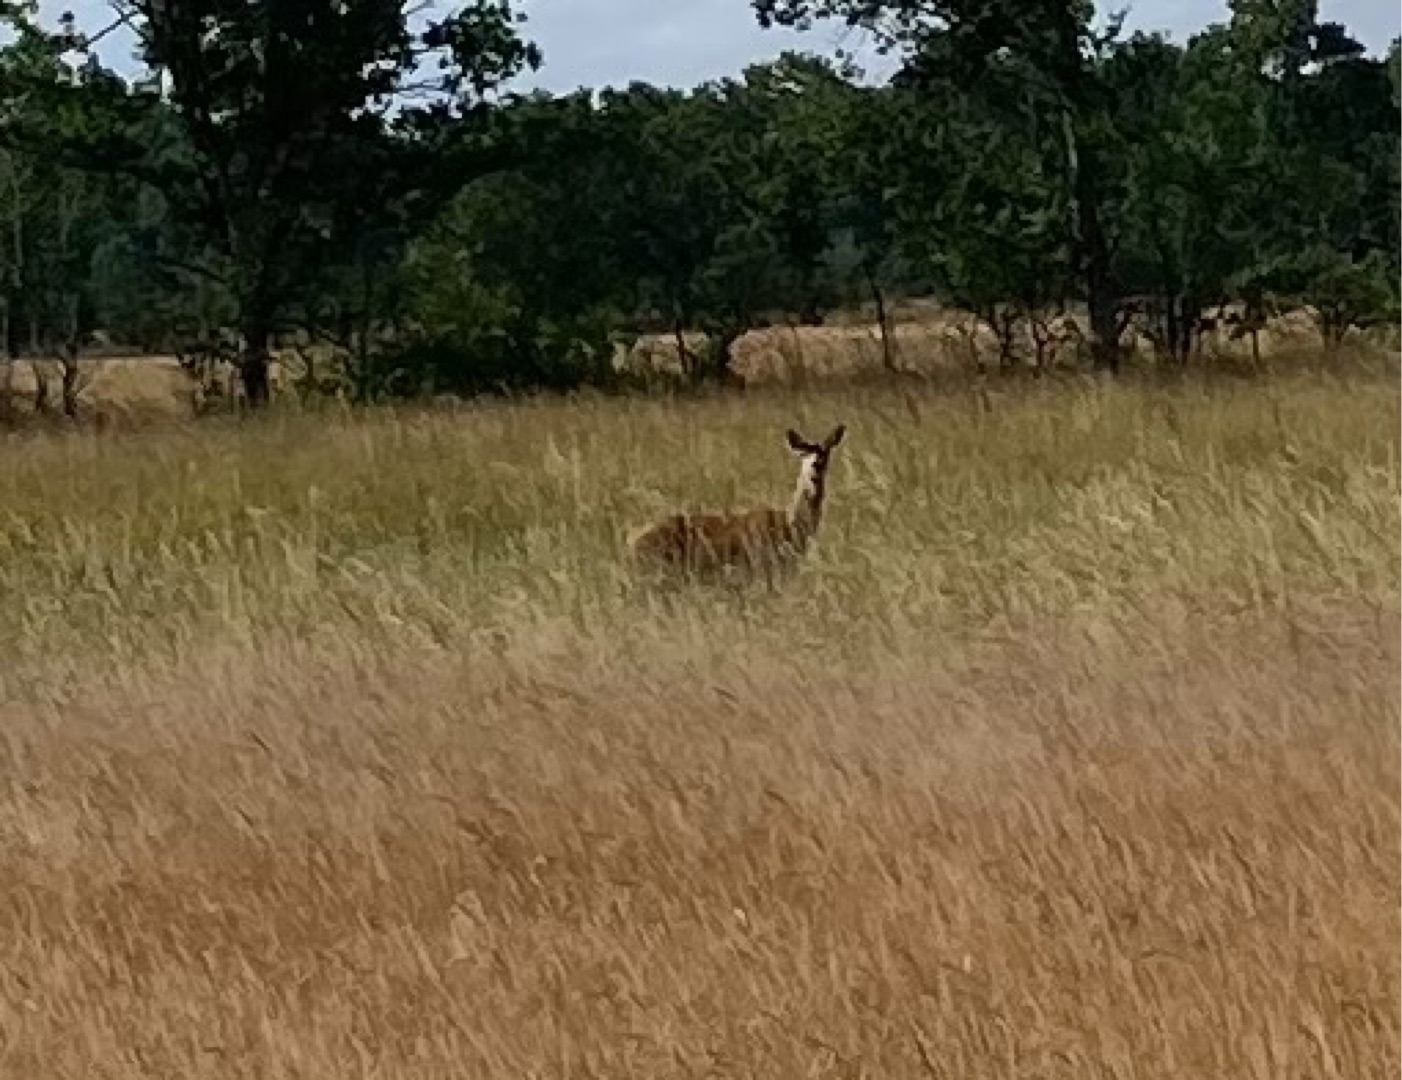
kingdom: Animalia
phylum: Chordata
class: Mammalia
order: Artiodactyla
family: Cervidae
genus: Cervus
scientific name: Cervus elaphus
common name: Krondyr
